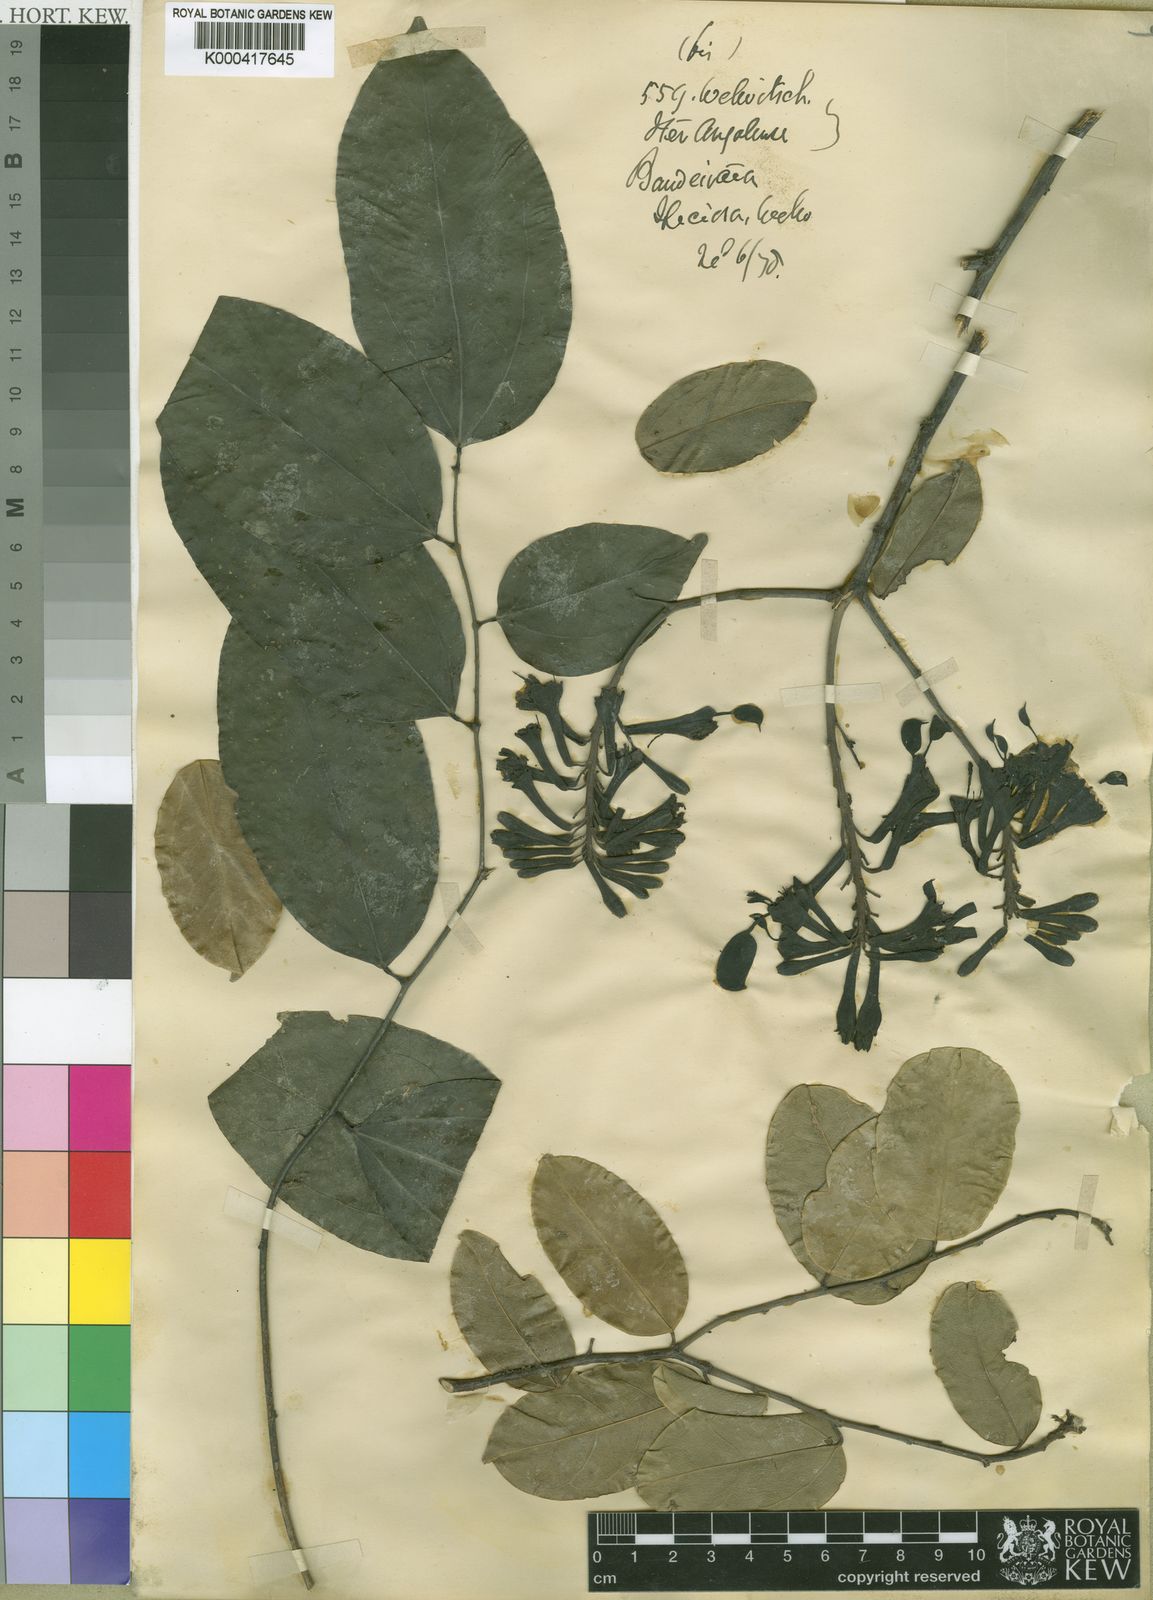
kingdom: Plantae
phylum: Tracheophyta
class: Magnoliopsida
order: Fabales
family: Fabaceae
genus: Griffonia
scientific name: Griffonia speciosa
